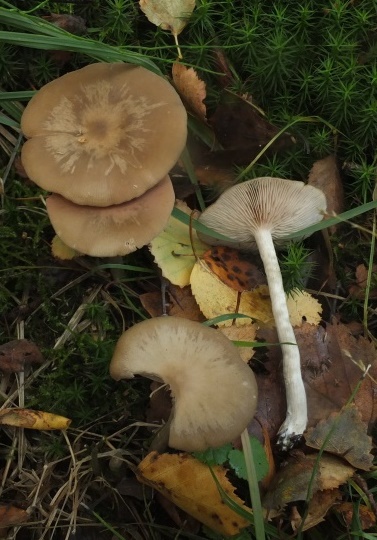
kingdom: Fungi
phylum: Basidiomycota
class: Agaricomycetes
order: Agaricales
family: Entolomataceae
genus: Entoloma
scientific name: Entoloma sericatum
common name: rank rødblad
